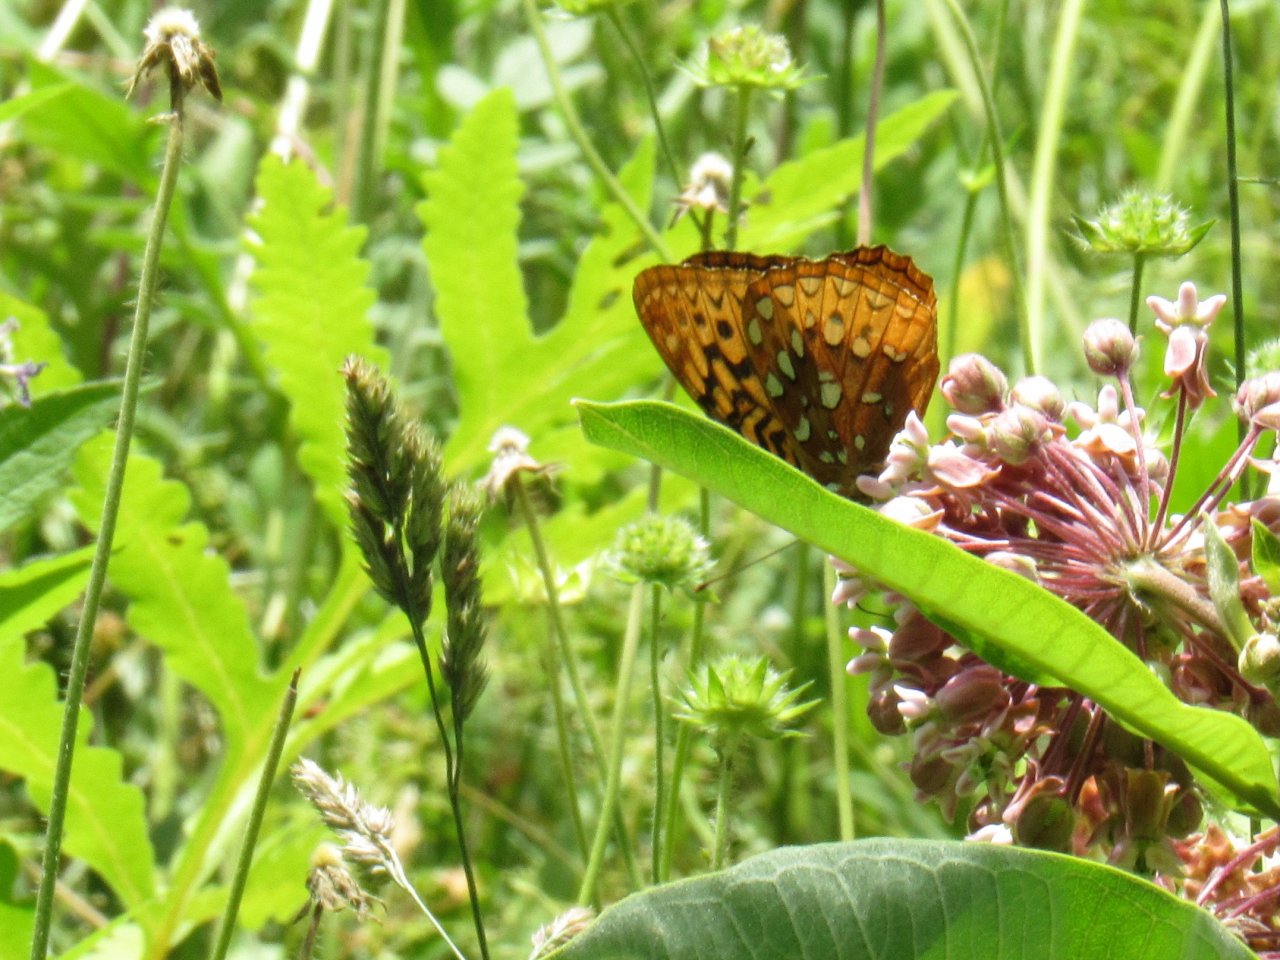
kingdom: Animalia
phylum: Arthropoda
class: Insecta
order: Lepidoptera
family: Nymphalidae
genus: Speyeria
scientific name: Speyeria cybele
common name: Great Spangled Fritillary
